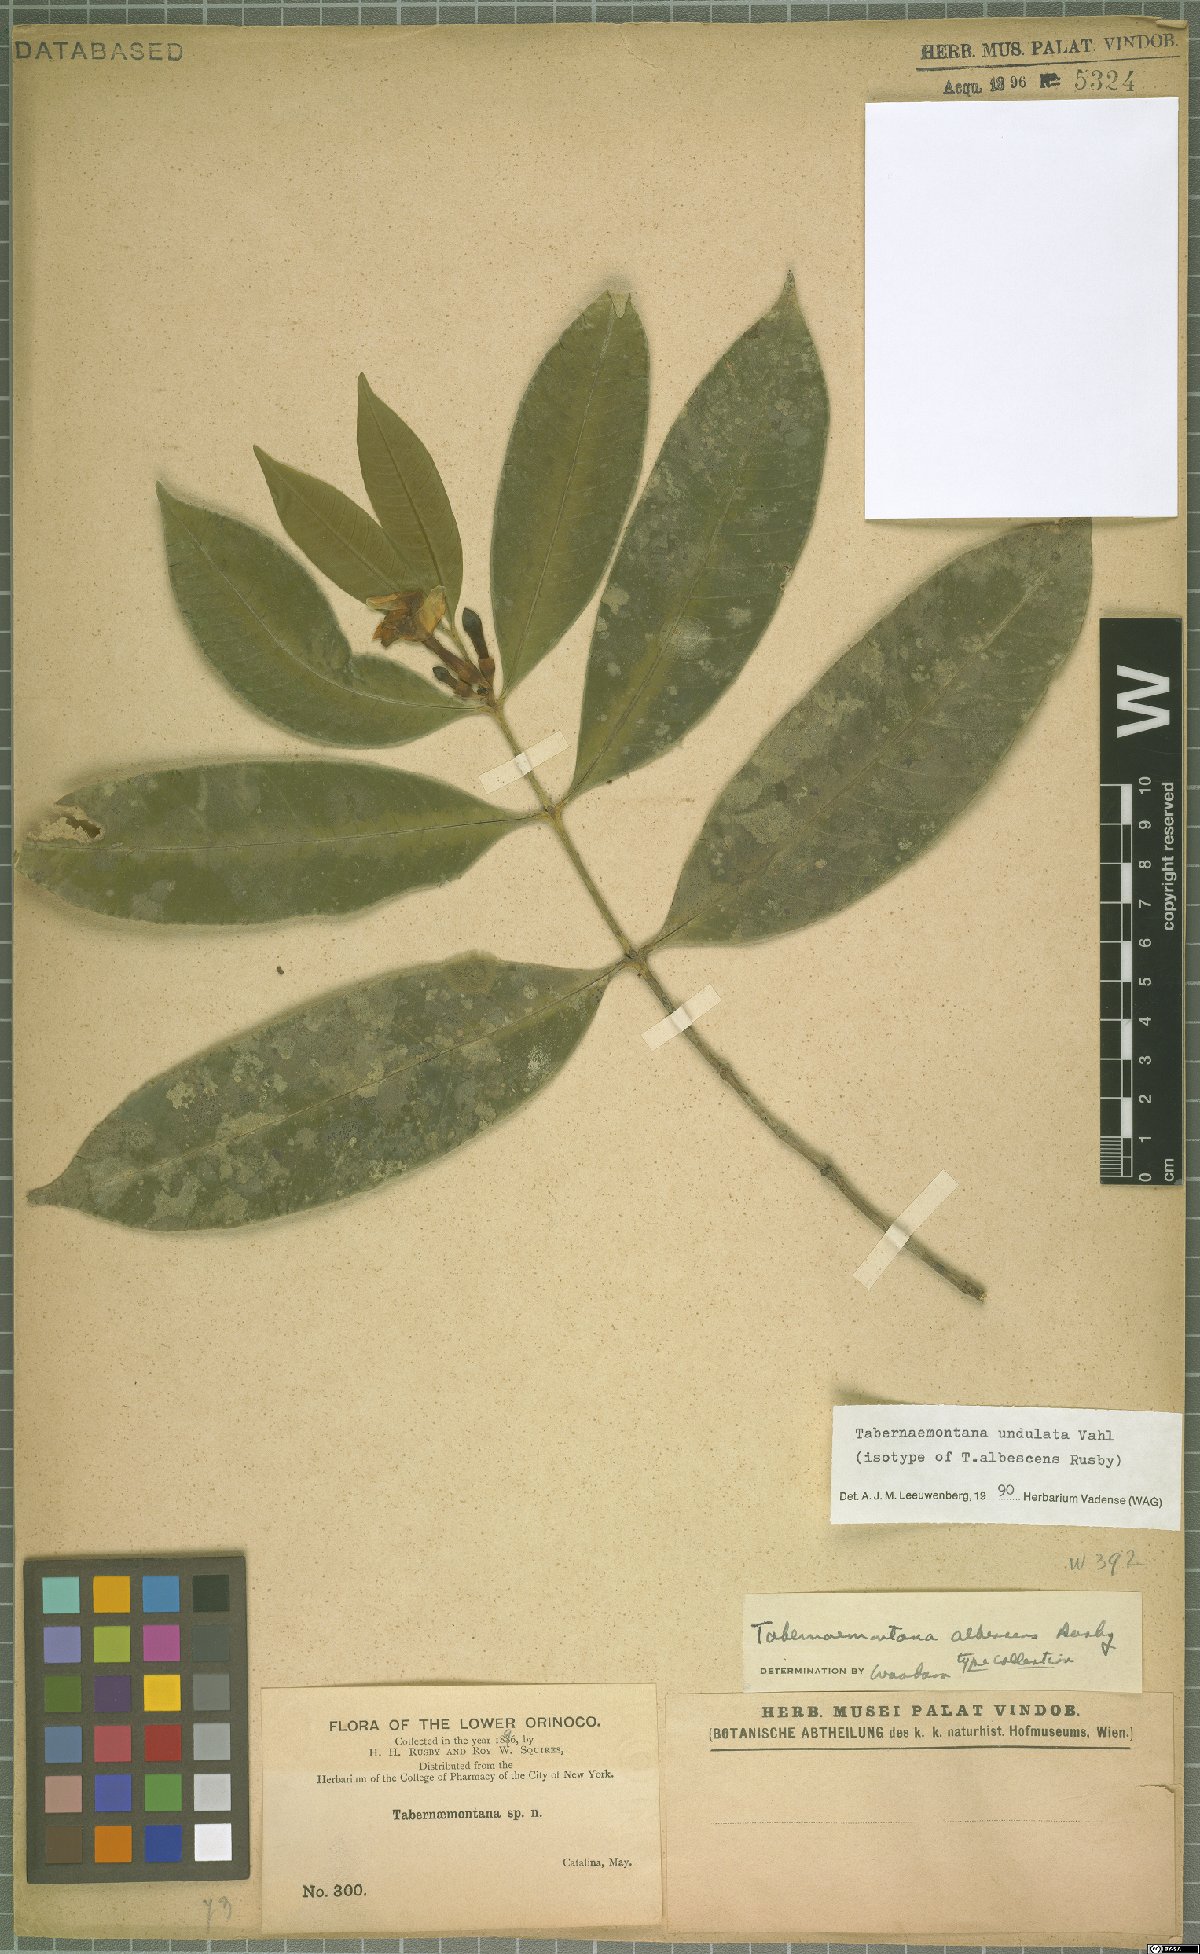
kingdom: Plantae
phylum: Tracheophyta
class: Magnoliopsida
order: Gentianales
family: Apocynaceae
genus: Tabernaemontana
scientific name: Tabernaemontana undulata
